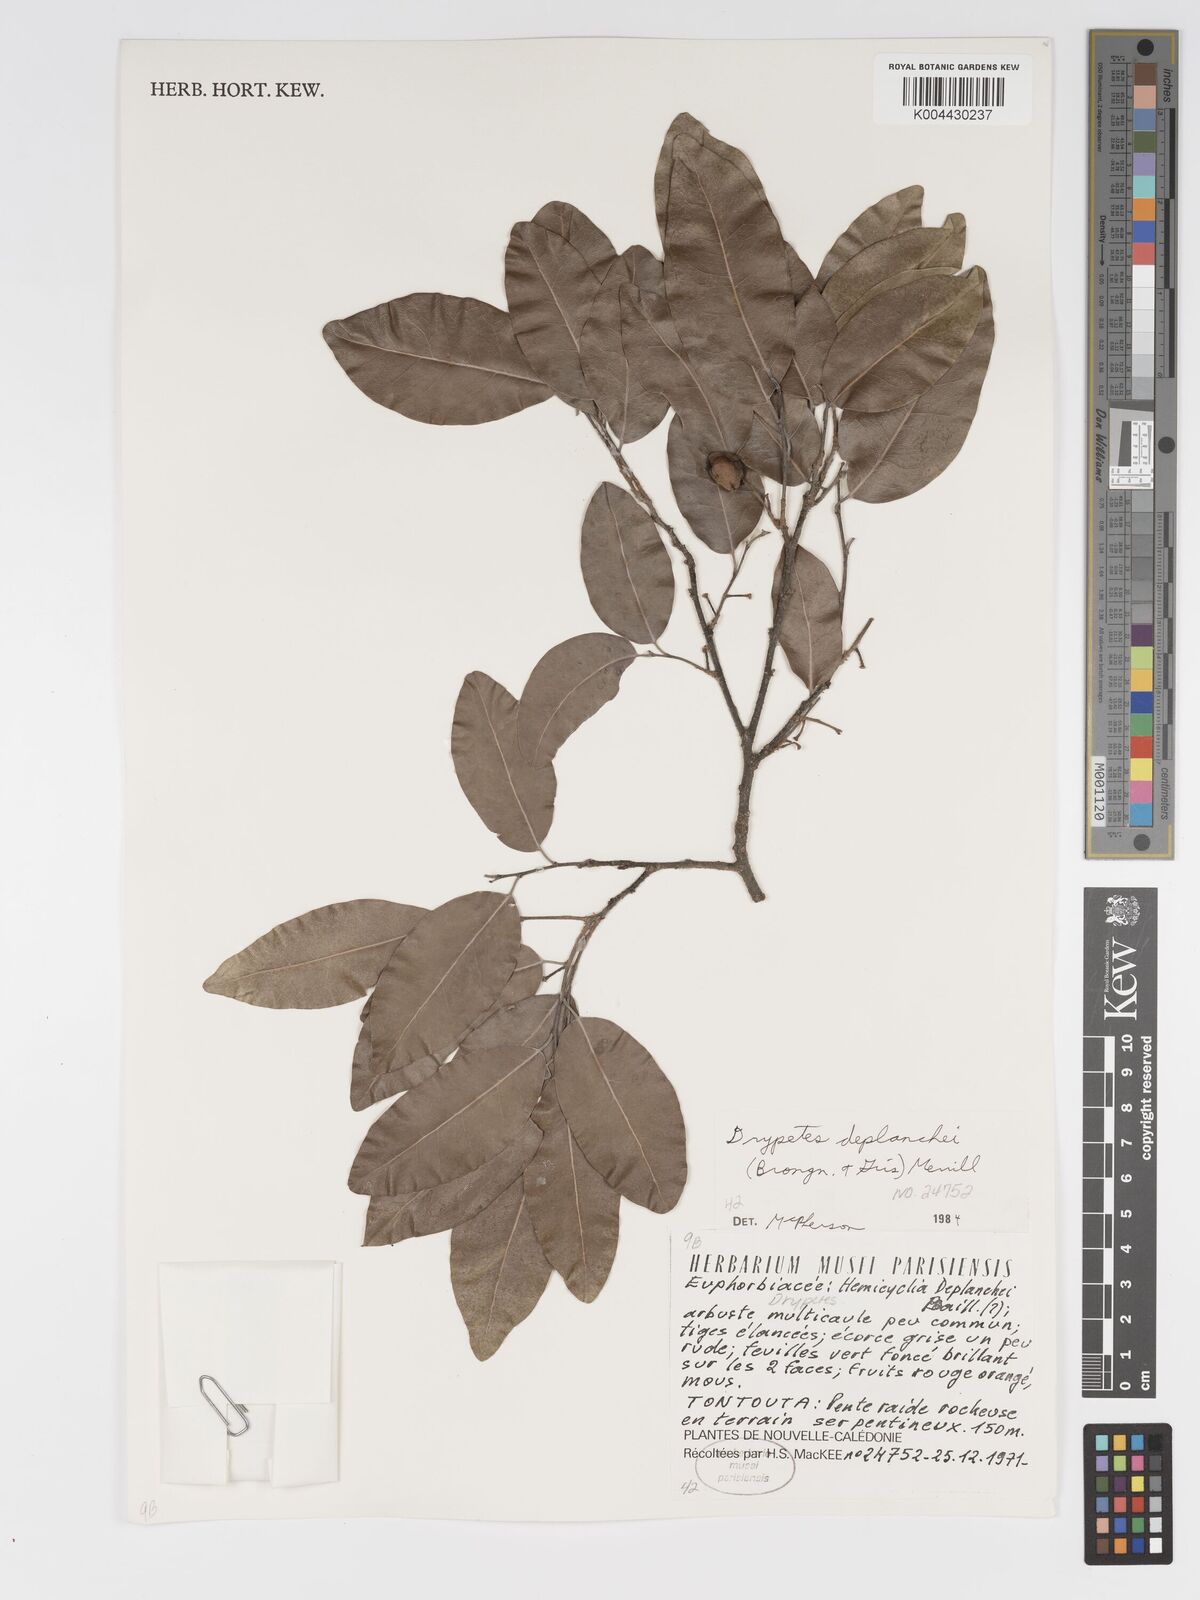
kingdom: Plantae
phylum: Tracheophyta
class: Magnoliopsida
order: Malpighiales
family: Putranjivaceae
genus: Drypetes
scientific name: Drypetes deplanchei
